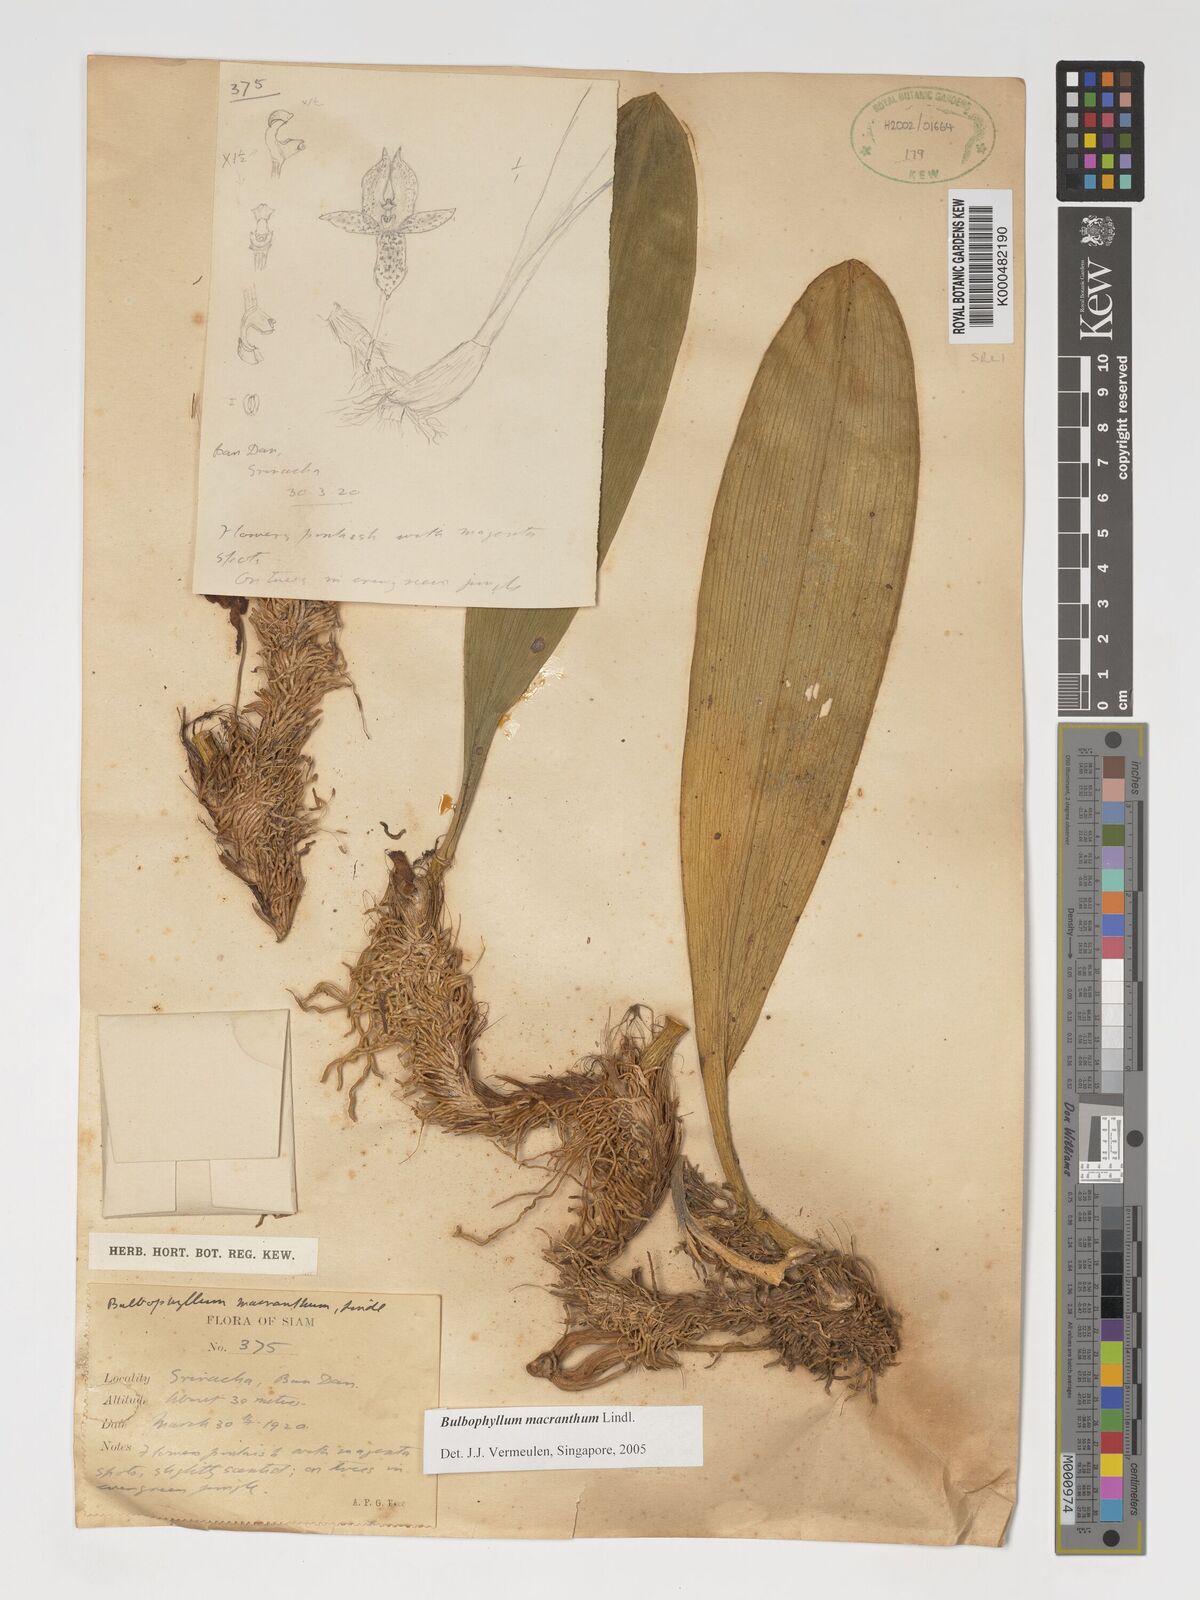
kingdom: Plantae
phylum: Tracheophyta
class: Liliopsida
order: Asparagales
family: Orchidaceae
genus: Bulbophyllum
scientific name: Bulbophyllum macranthum
